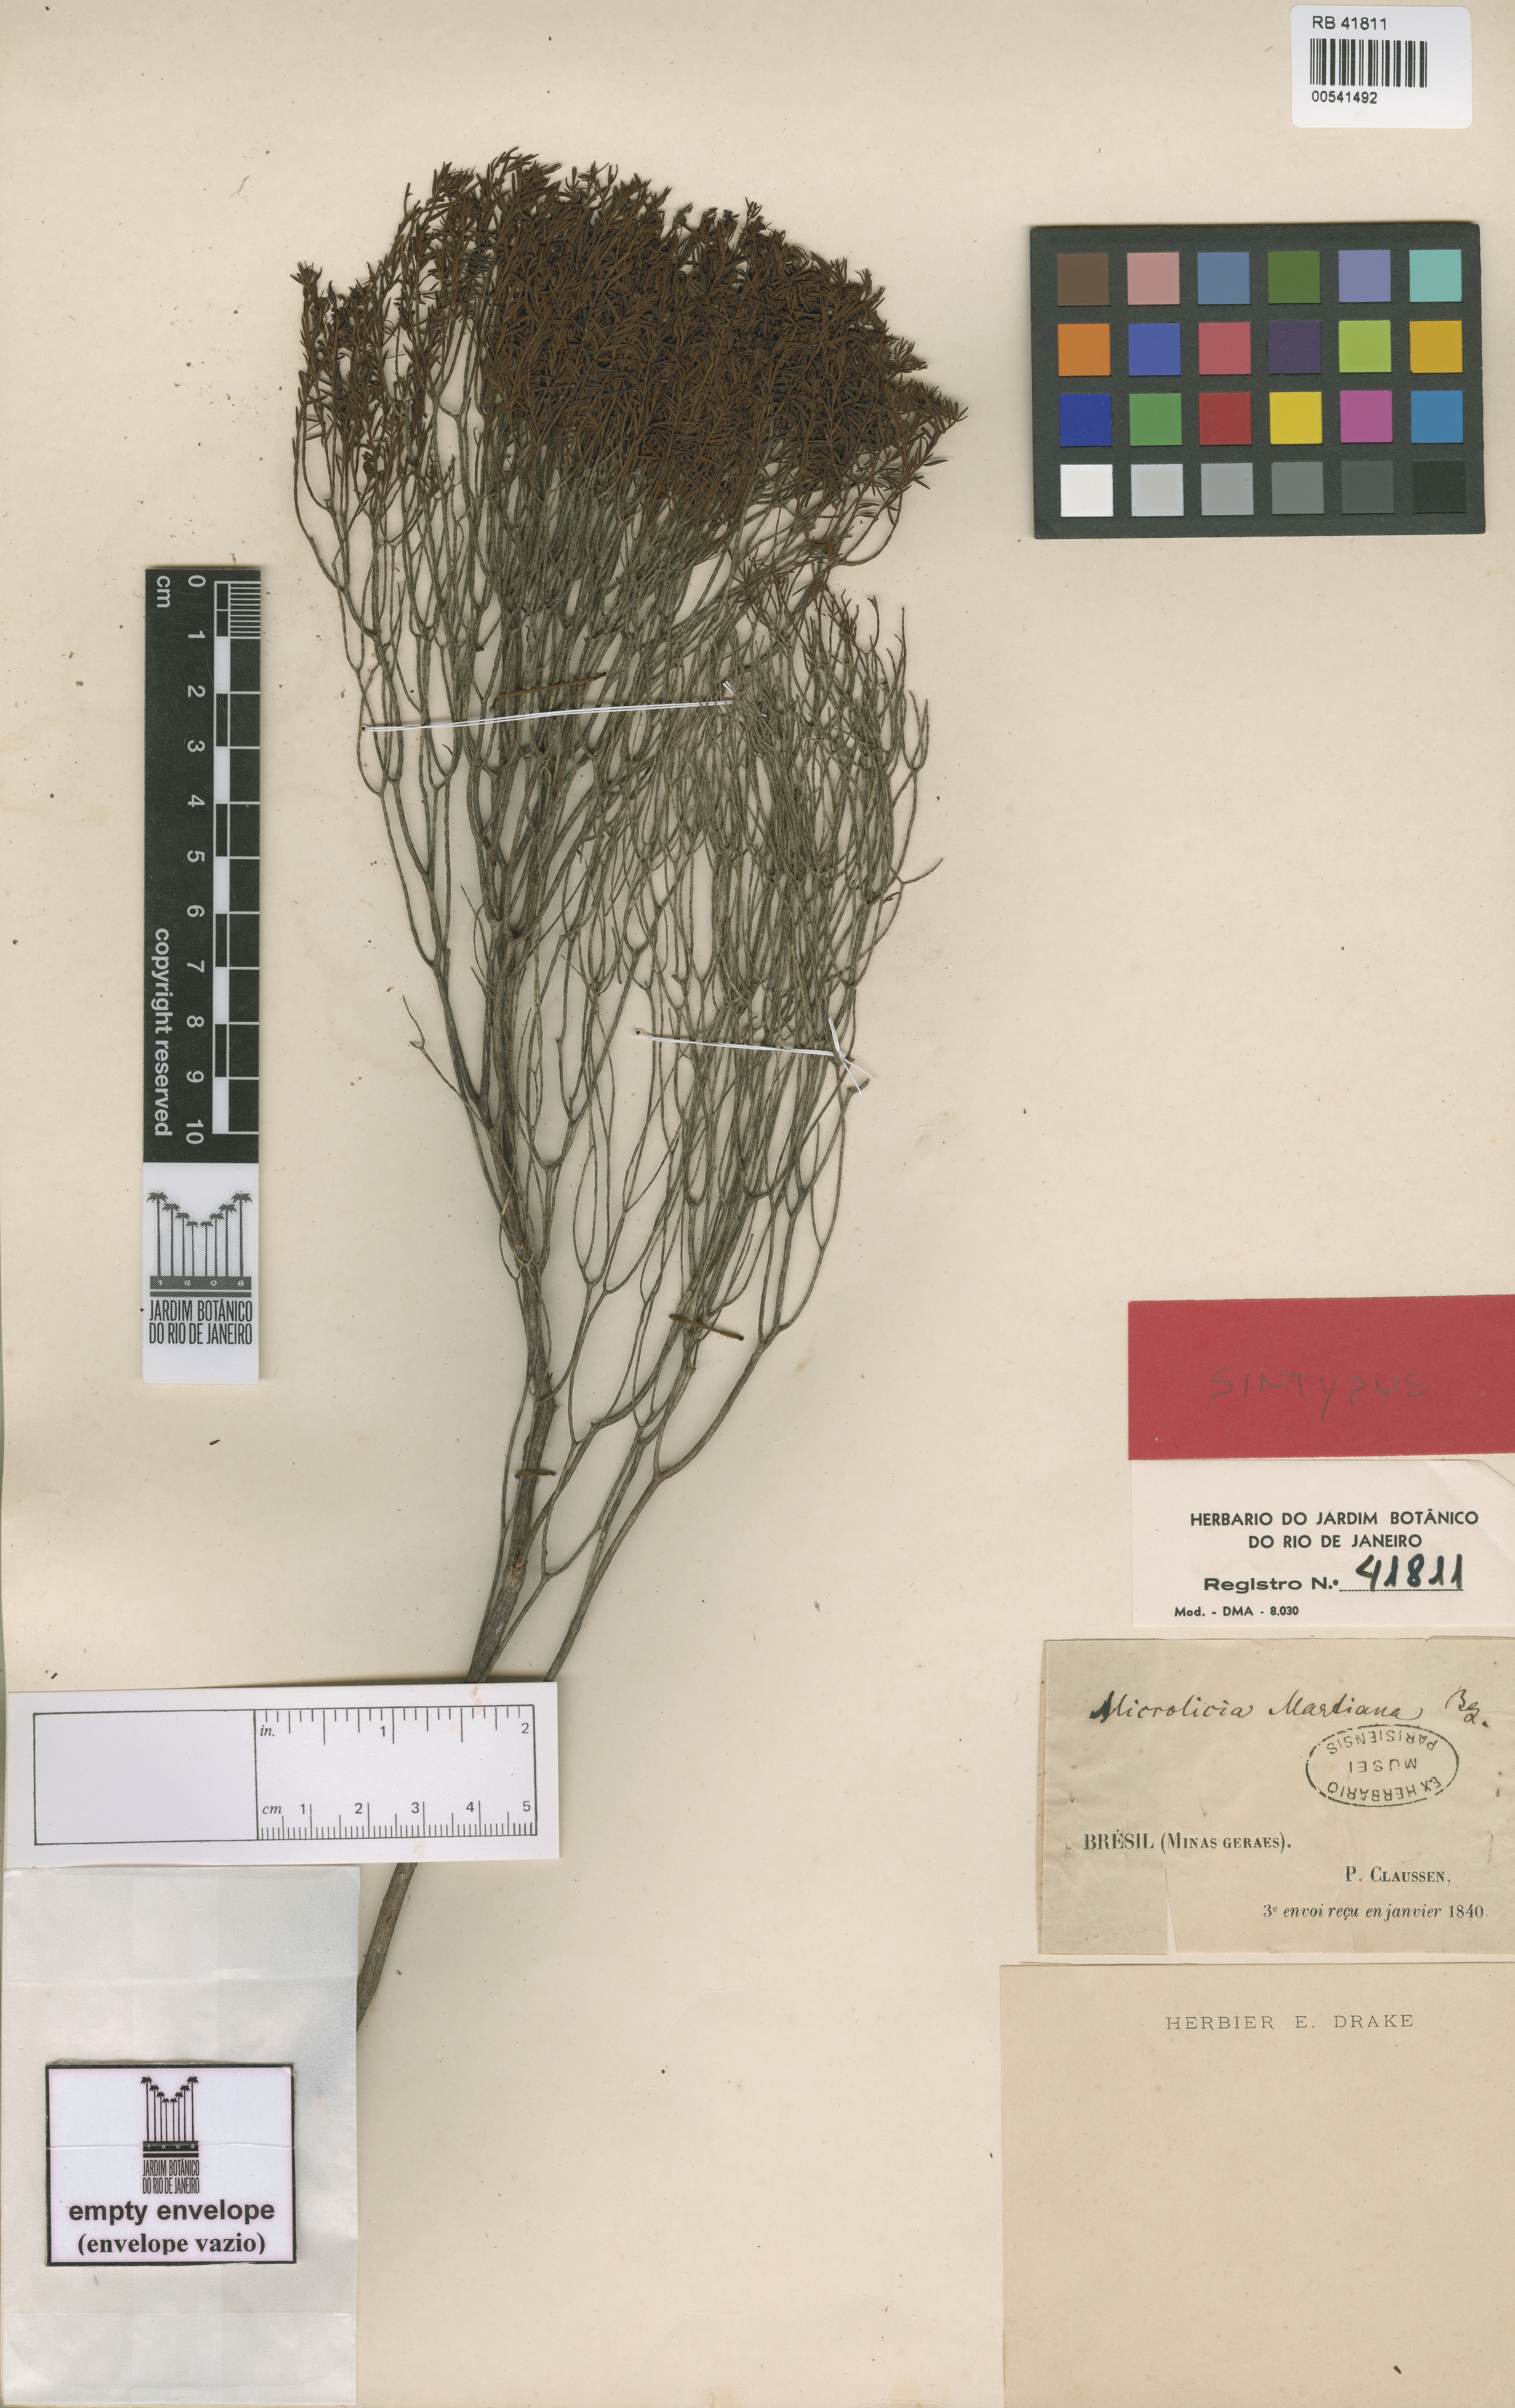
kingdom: Plantae
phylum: Tracheophyta
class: Magnoliopsida
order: Myrtales
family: Melastomataceae
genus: Microlicia
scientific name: Microlicia martiana
